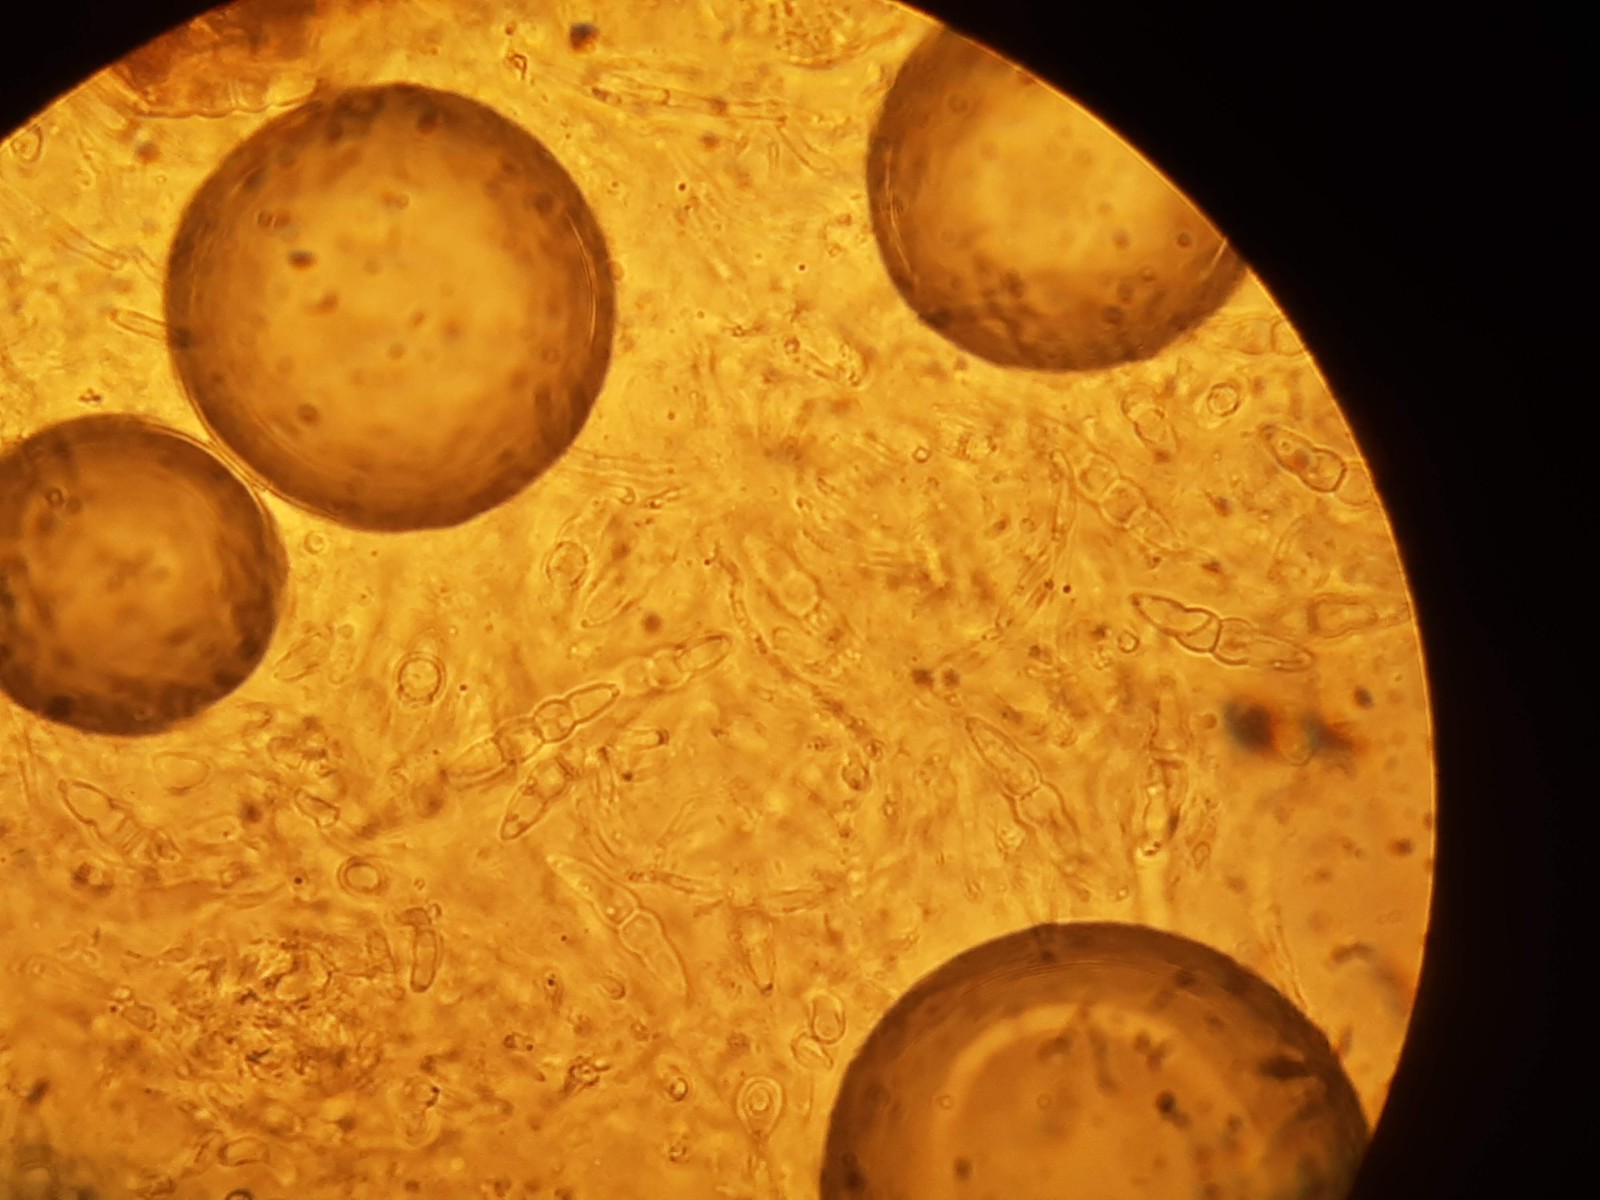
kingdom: Fungi
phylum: Ascomycota
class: Dothideomycetes
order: Pleosporales
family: Leptosphaeriaceae
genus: Leptosphaeria
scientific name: Leptosphaeria purpurea
